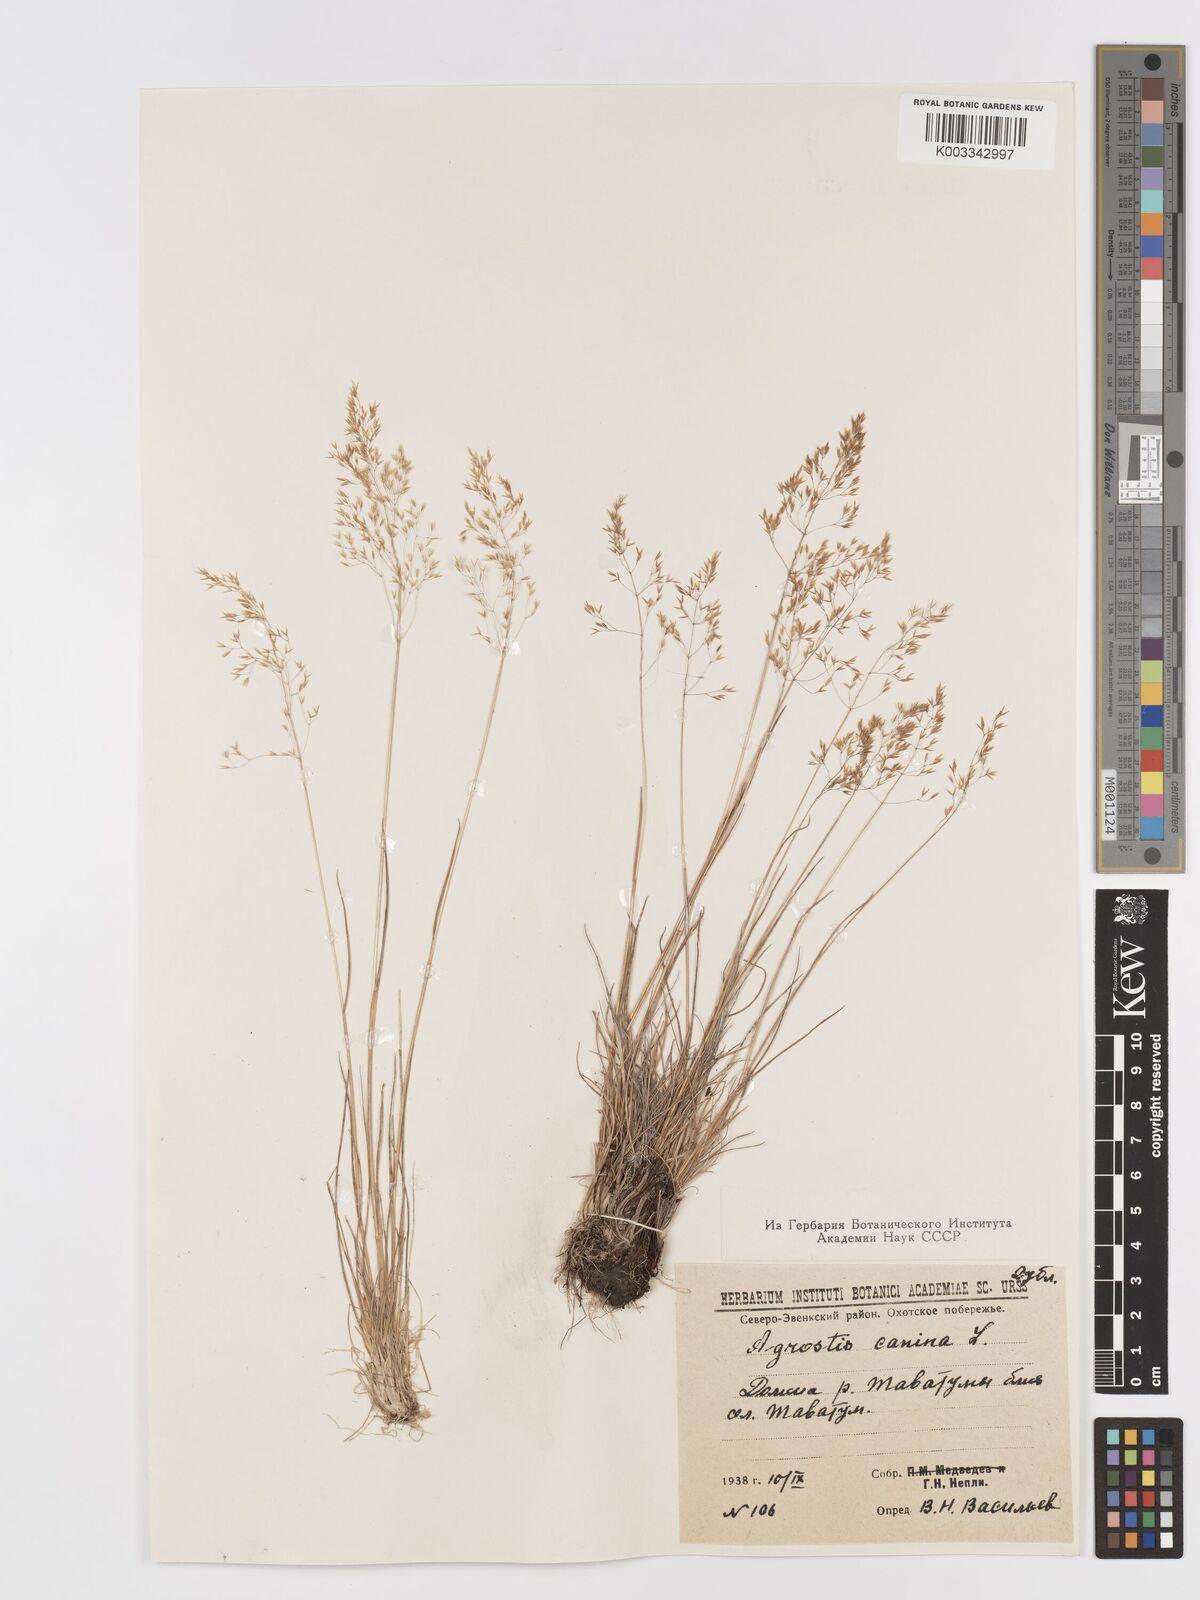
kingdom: Plantae
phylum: Tracheophyta
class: Liliopsida
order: Poales
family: Poaceae
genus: Agrostis
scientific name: Agrostis canina
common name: Velvet bent
